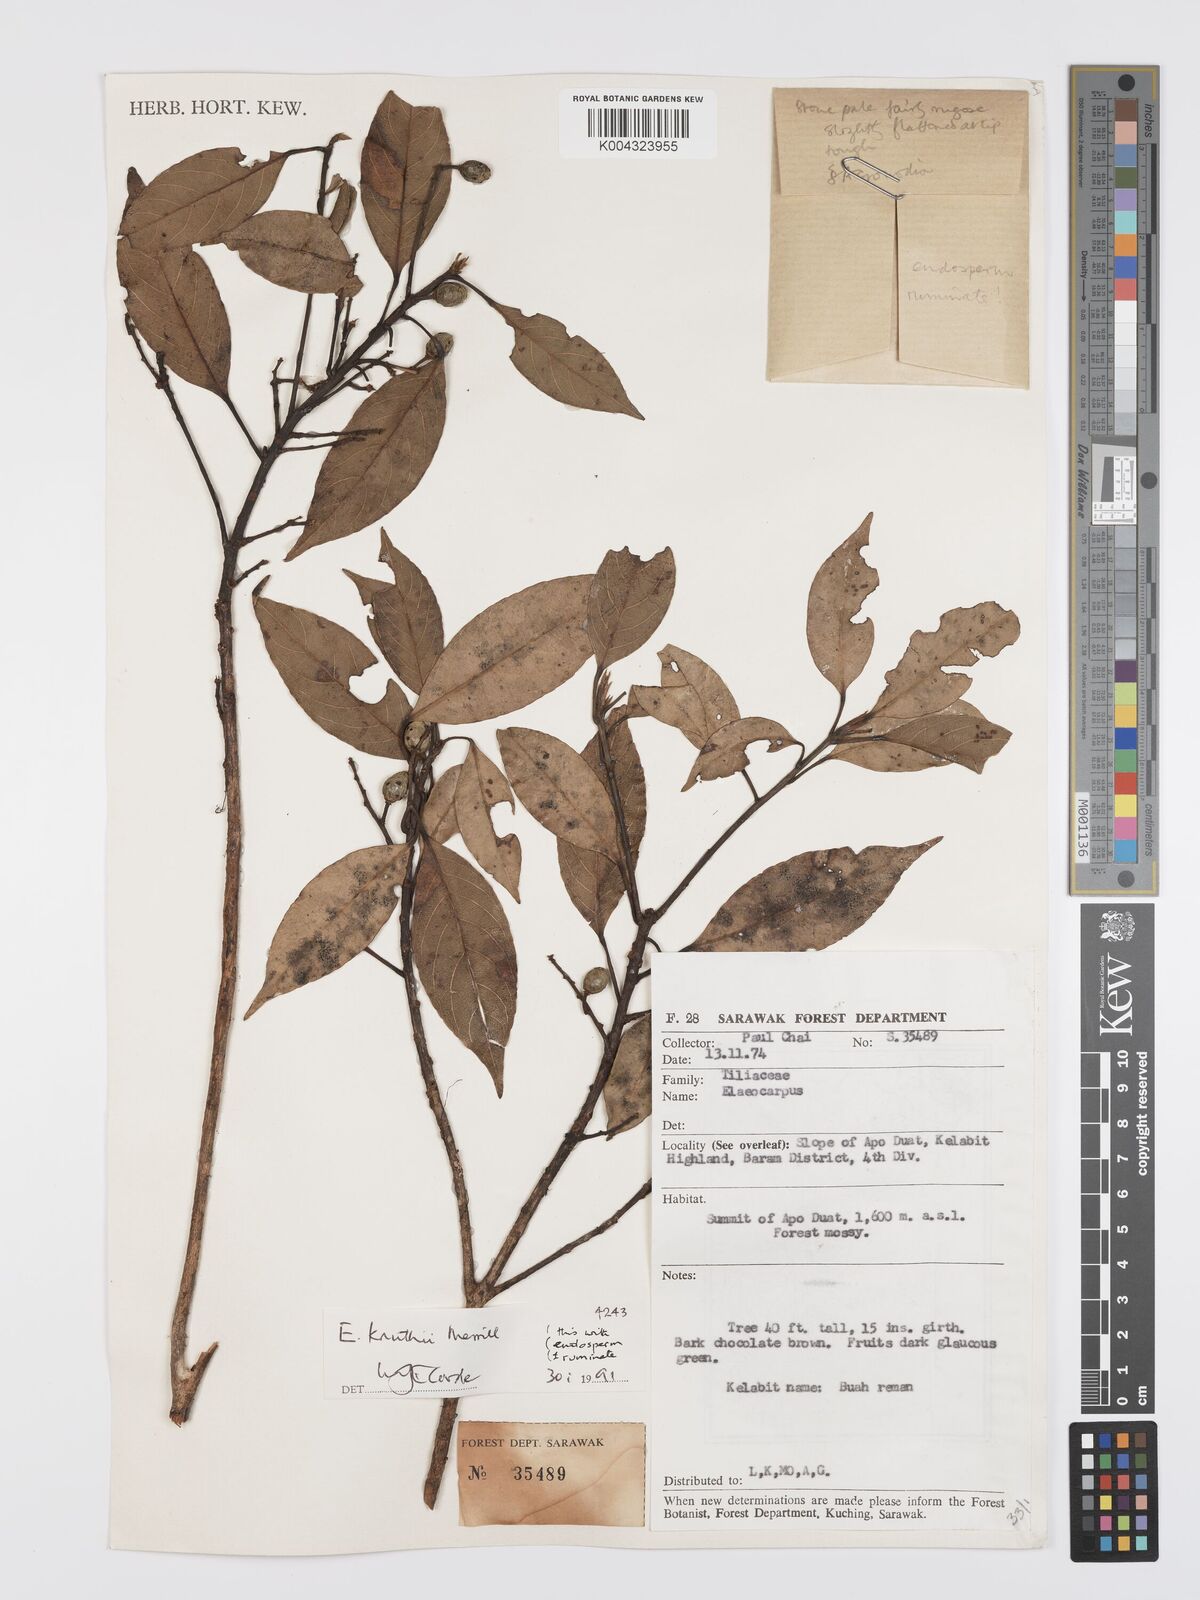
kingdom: Plantae
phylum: Tracheophyta
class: Magnoliopsida
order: Oxalidales
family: Elaeocarpaceae
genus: Elaeocarpus
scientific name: Elaeocarpus knuthii
